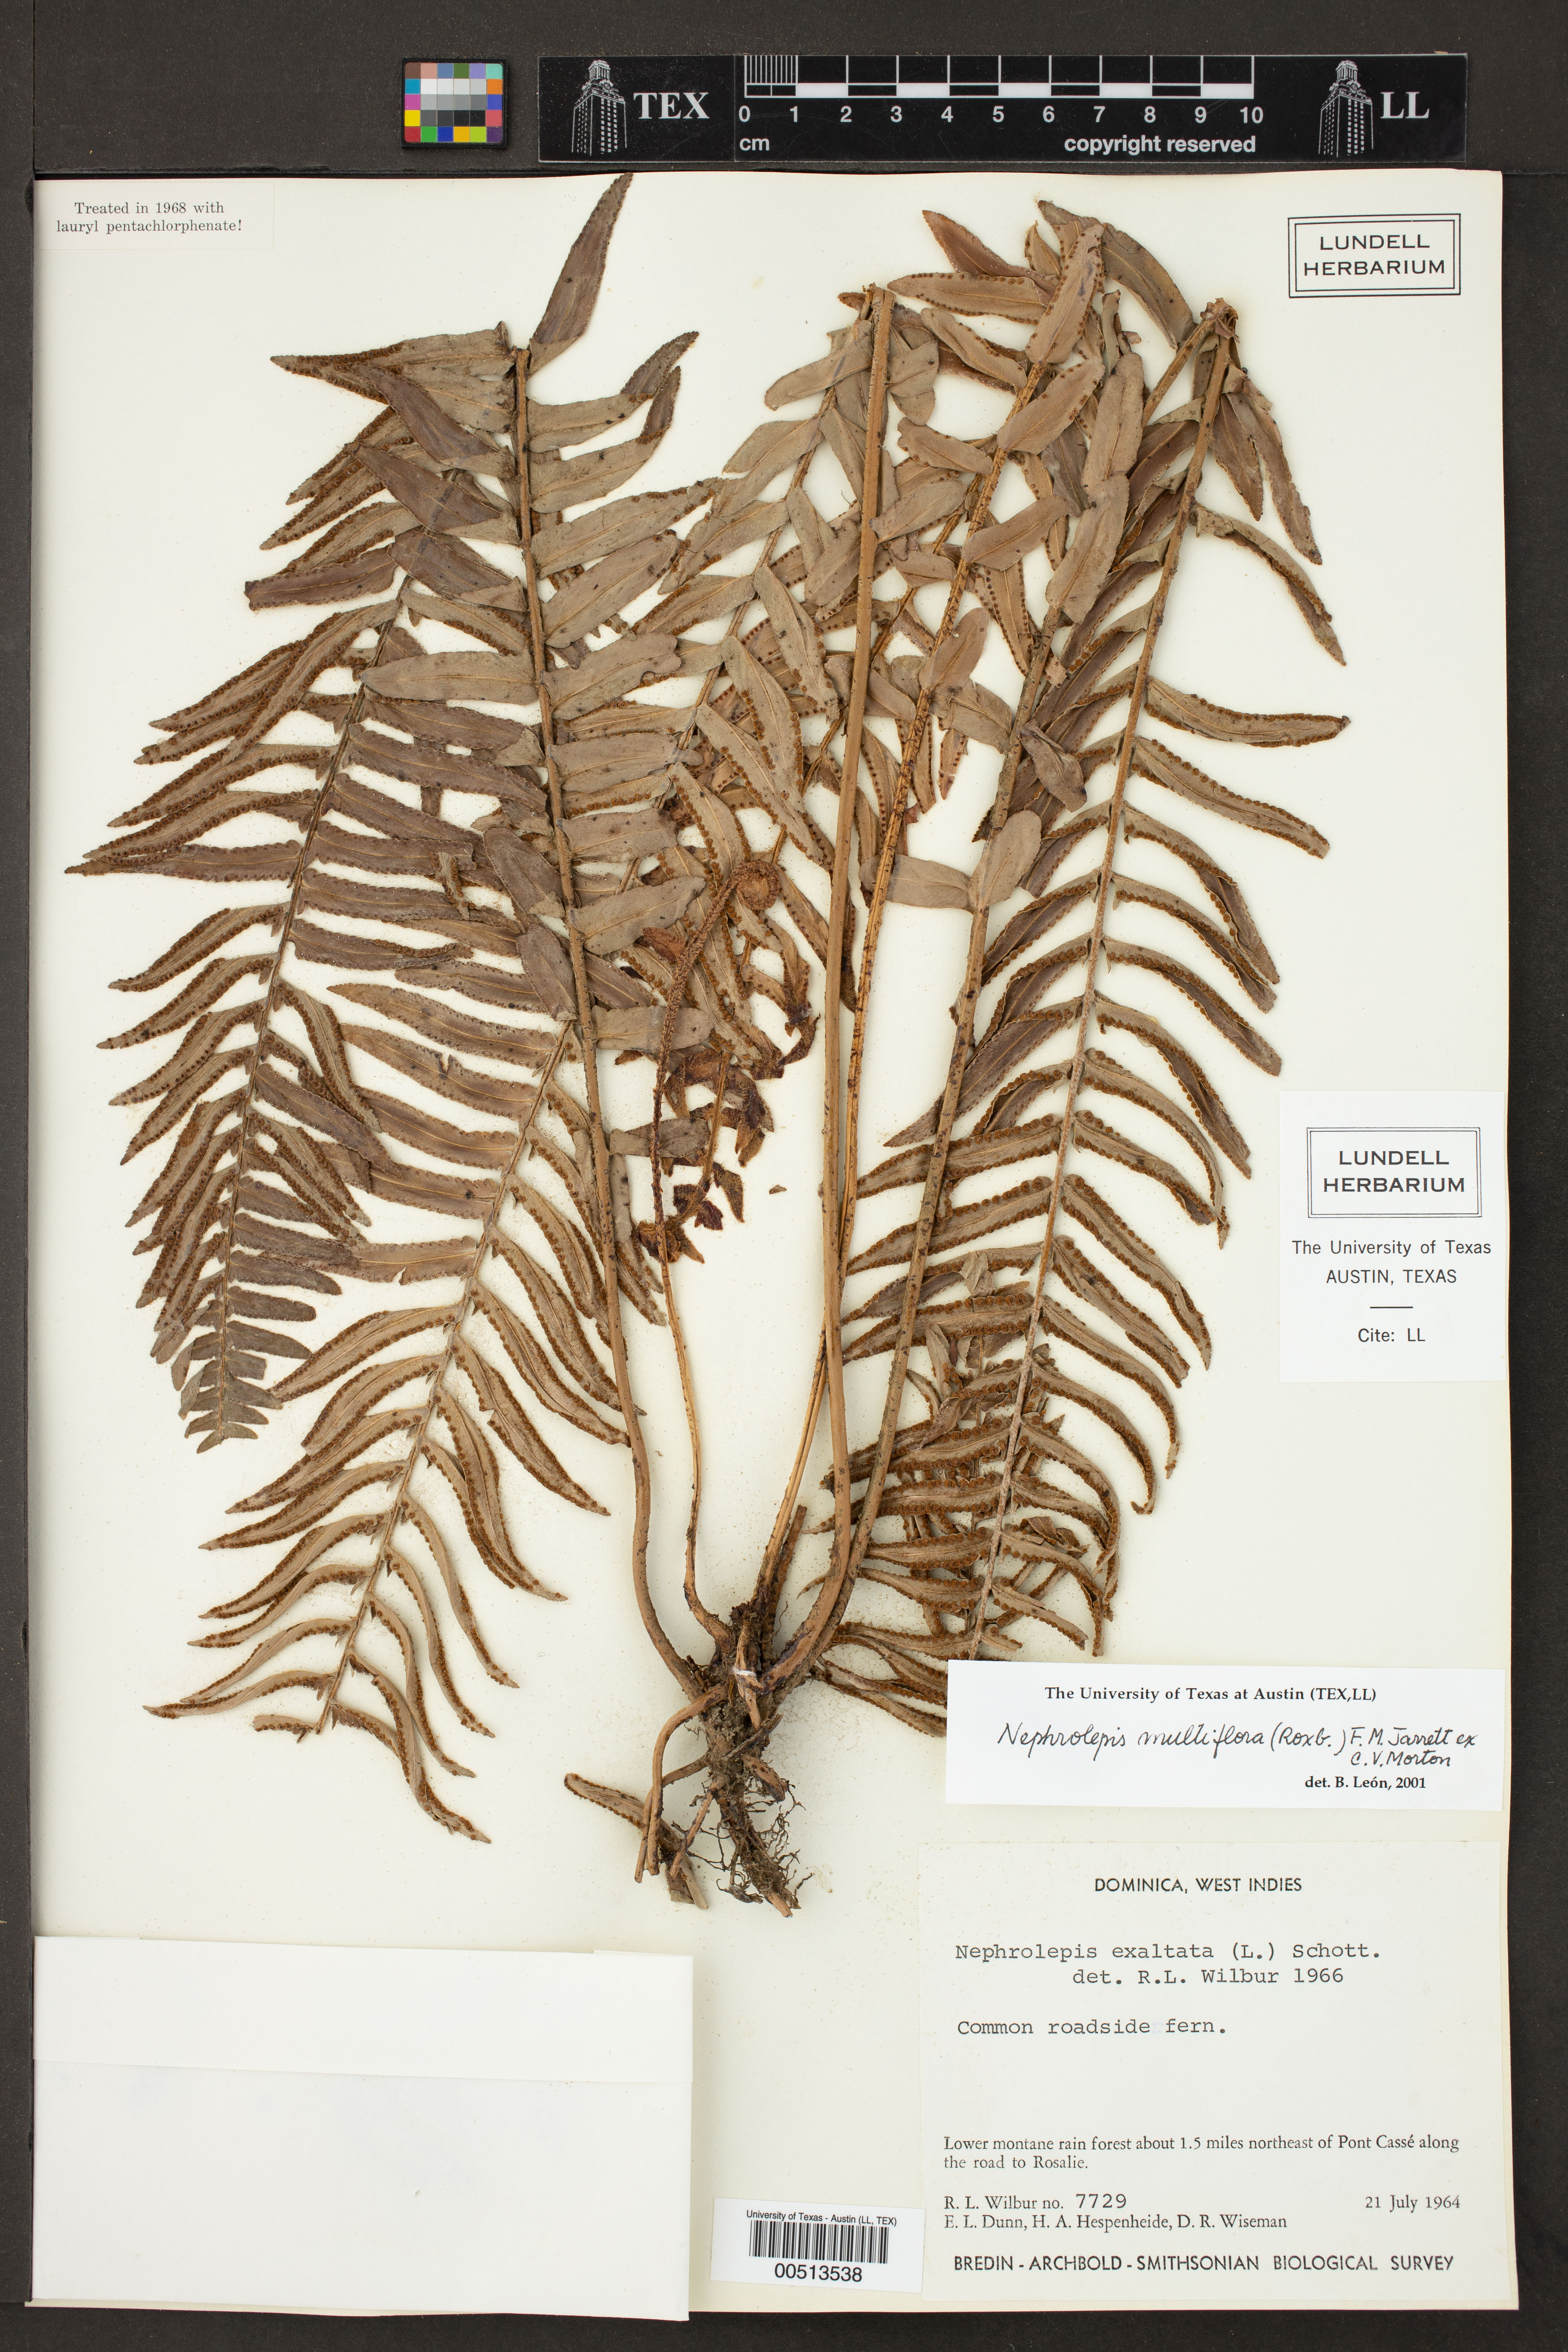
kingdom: Plantae
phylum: Tracheophyta
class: Polypodiopsida
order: Polypodiales
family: Nephrolepidaceae
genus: Nephrolepis
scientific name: Nephrolepis brownii
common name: Asian swordfern
